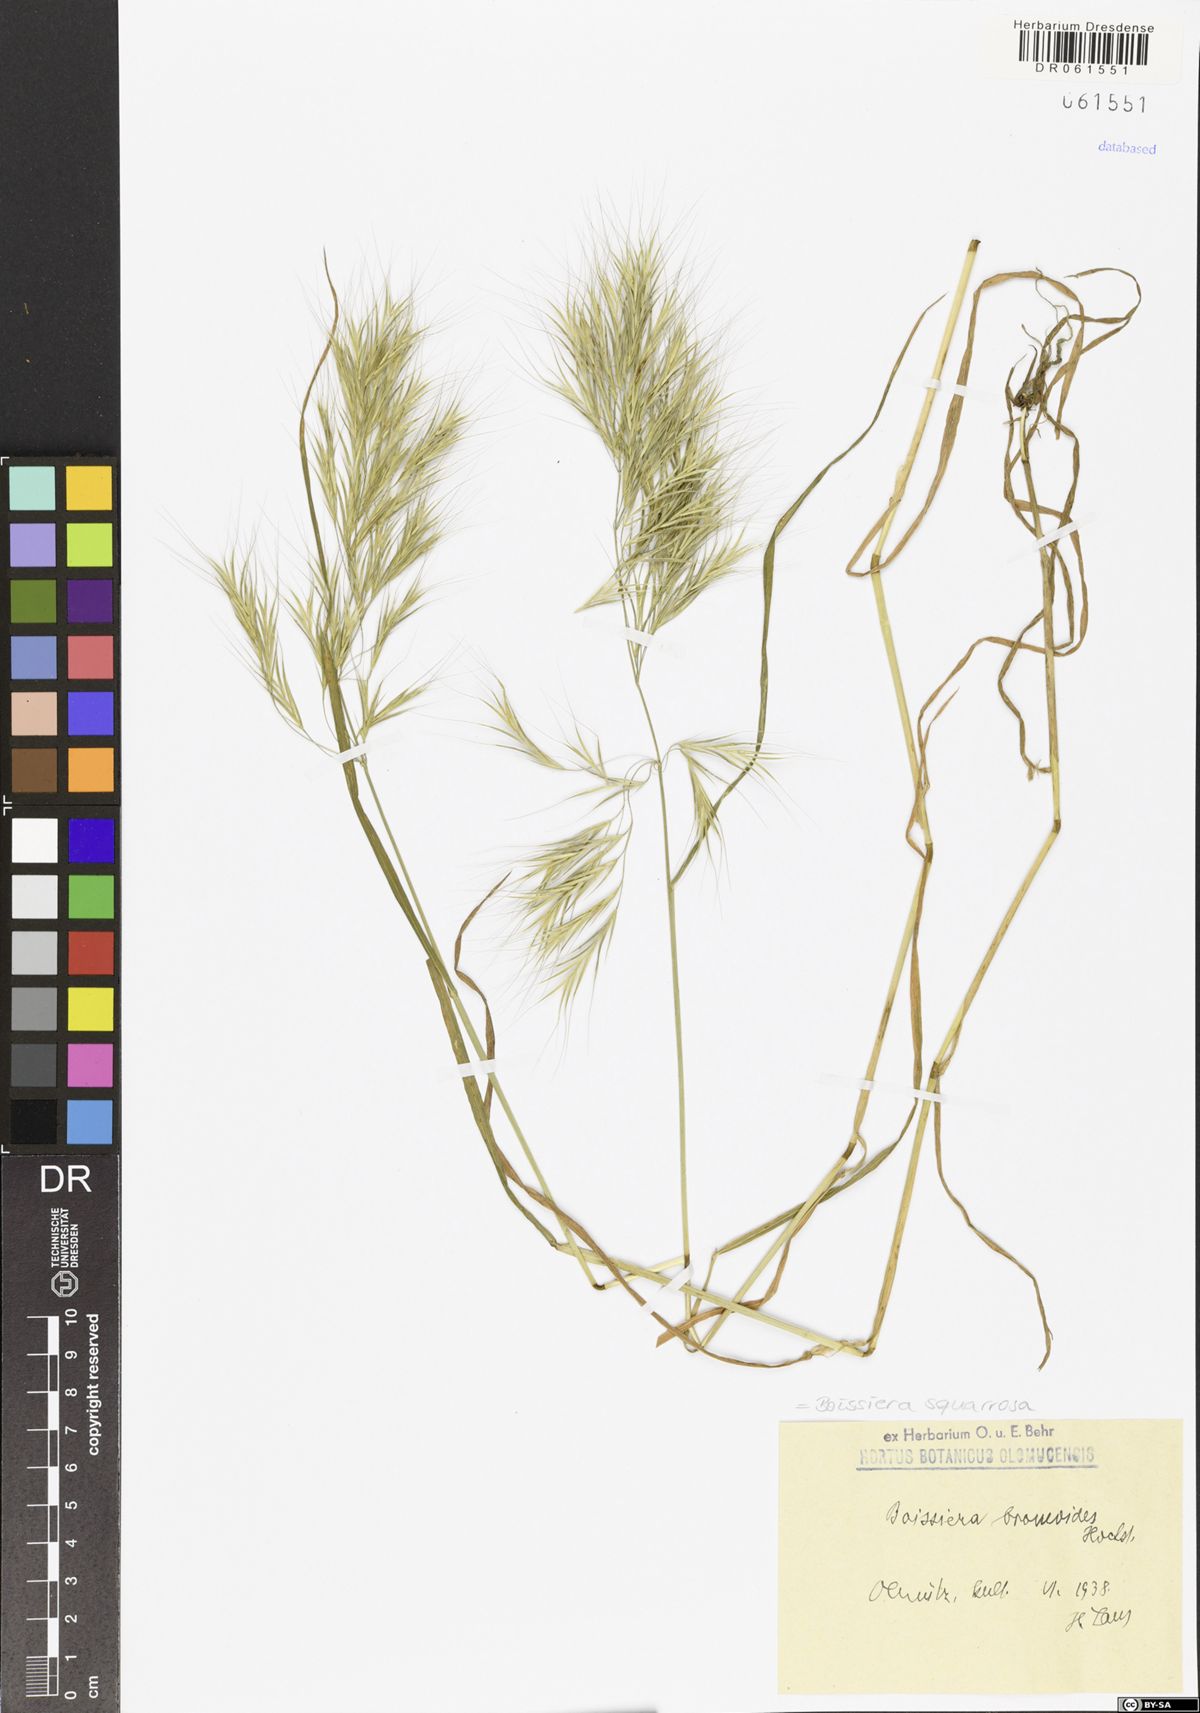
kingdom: Plantae
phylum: Tracheophyta
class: Liliopsida
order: Poales
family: Poaceae
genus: Bromus
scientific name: Bromus pumilio
